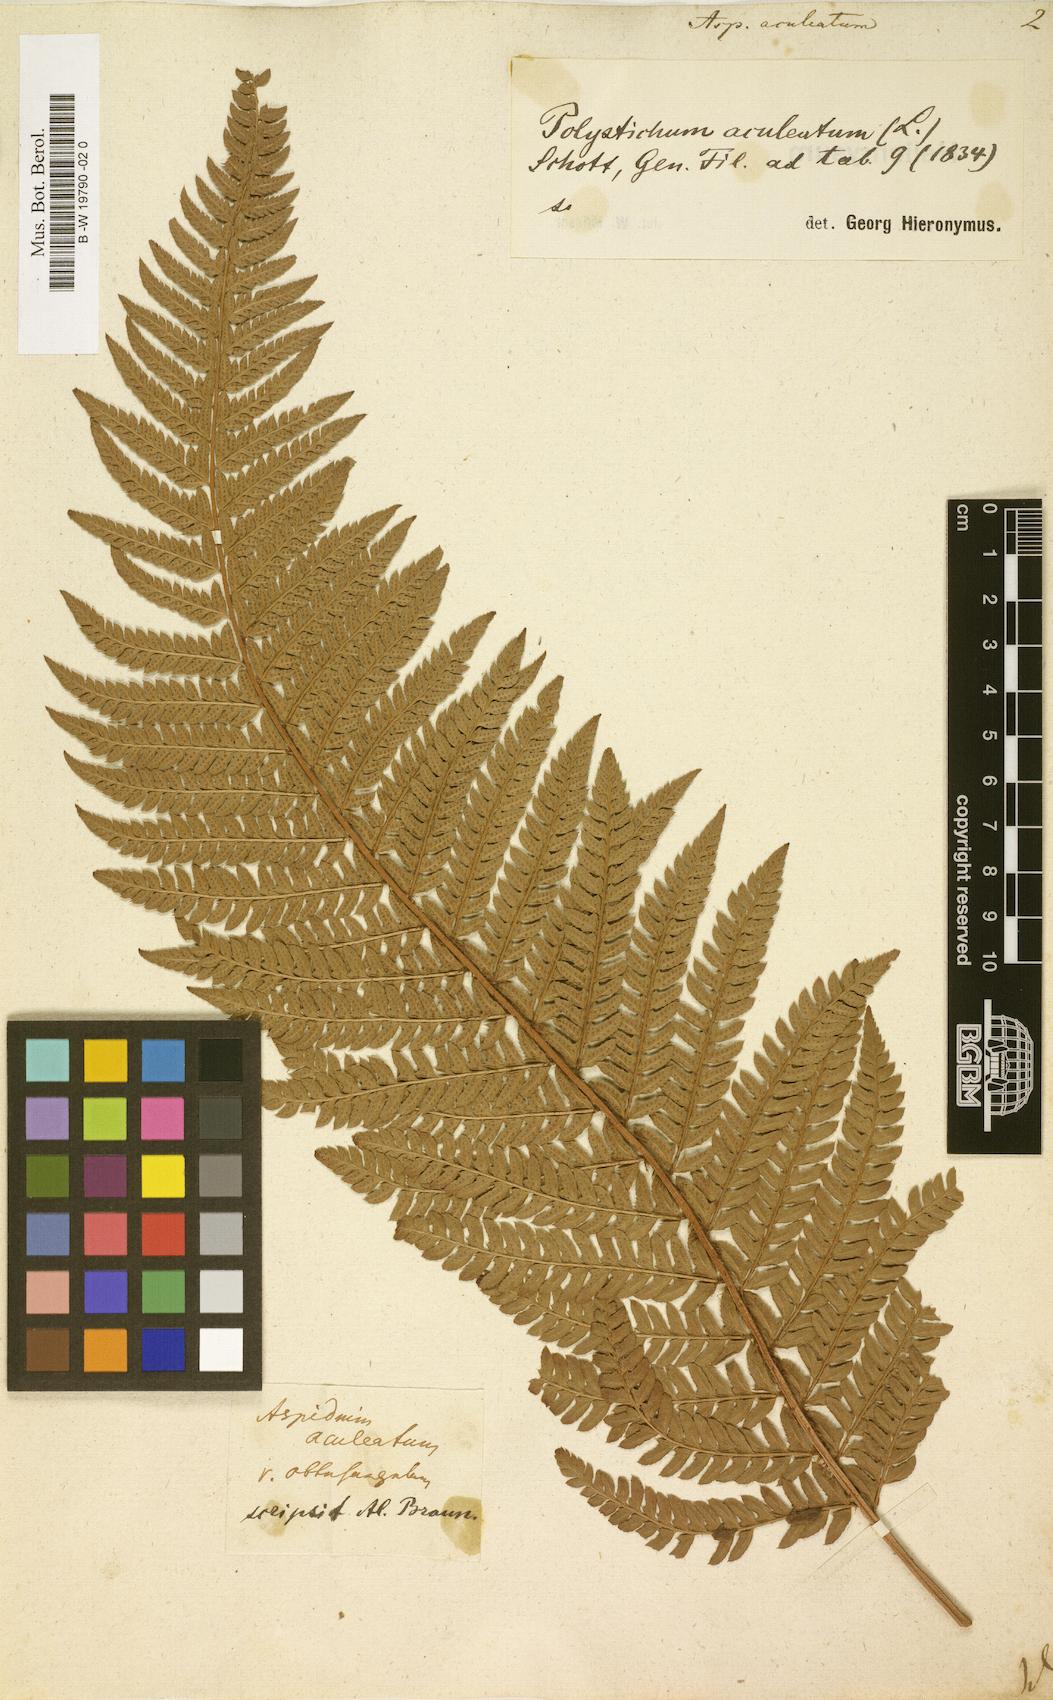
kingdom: Plantae
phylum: Tracheophyta
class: Polypodiopsida
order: Polypodiales
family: Dryopteridaceae
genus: Polystichum
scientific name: Polystichum aculeatum
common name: Hard shield-fern
